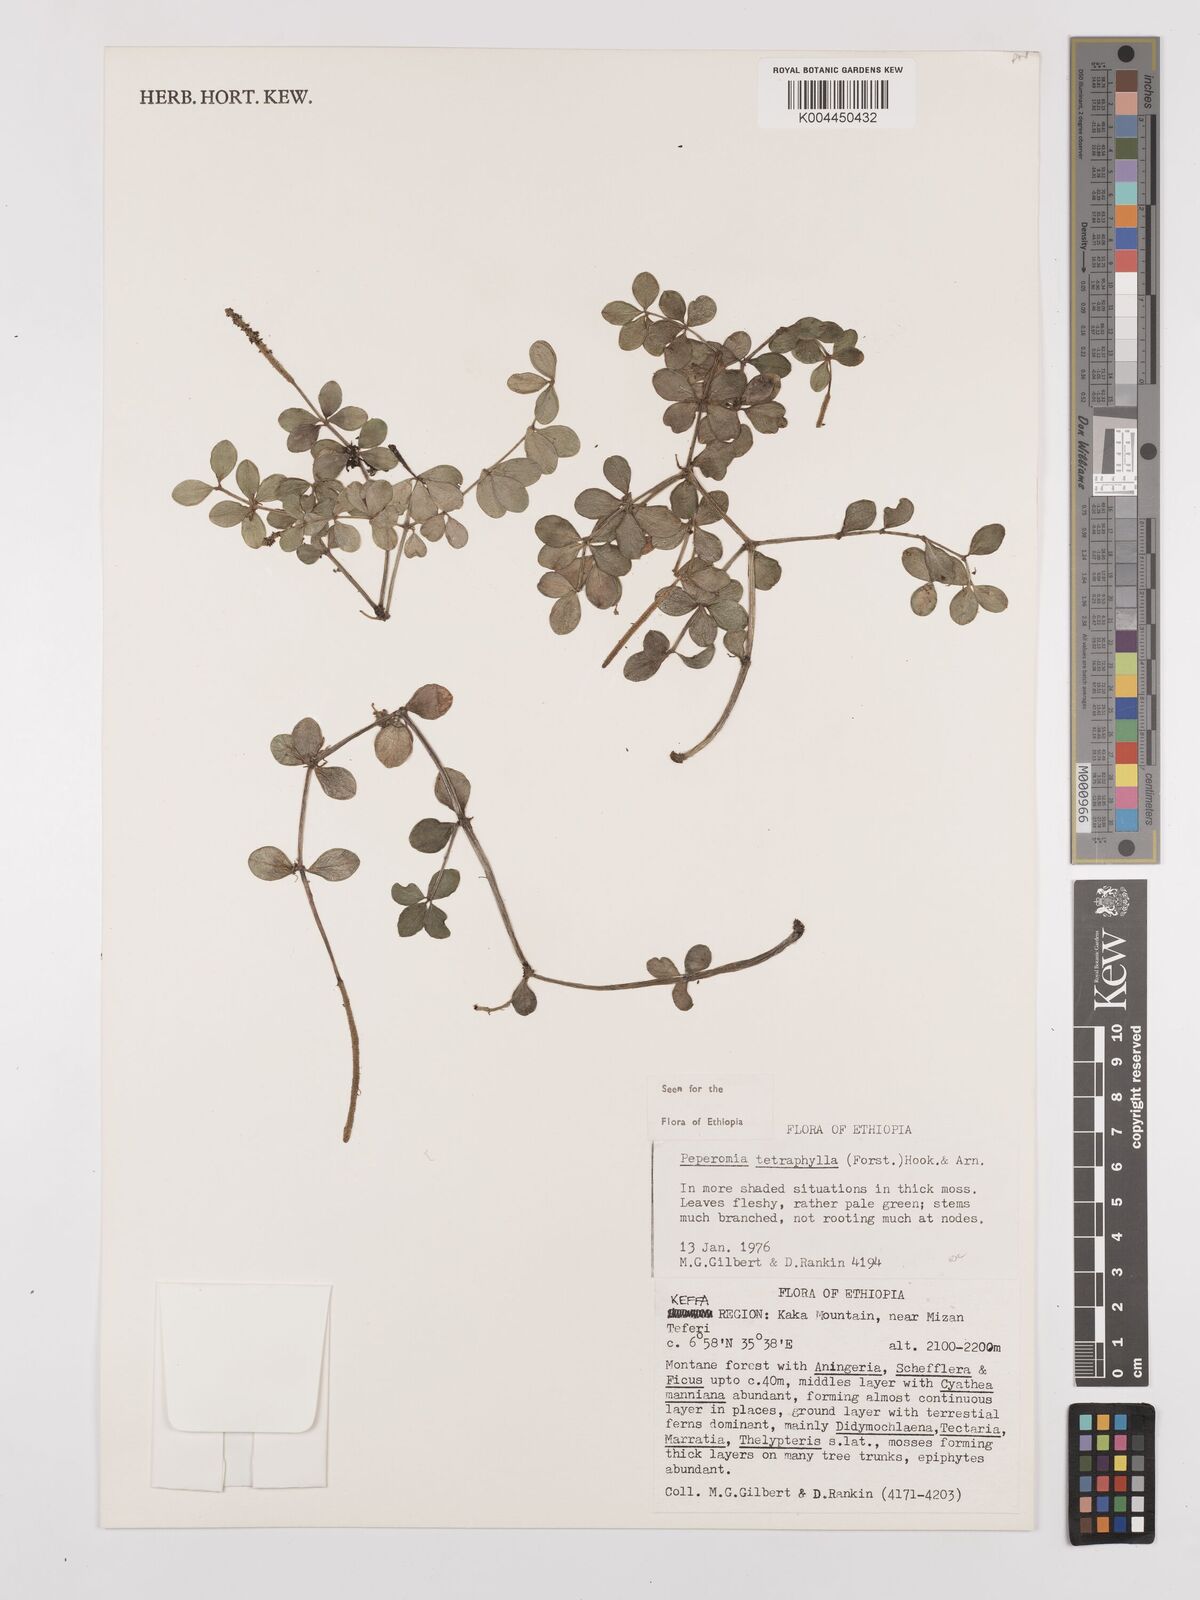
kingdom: Plantae
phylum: Tracheophyta
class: Magnoliopsida
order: Piperales
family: Piperaceae
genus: Peperomia
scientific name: Peperomia tetraphylla
